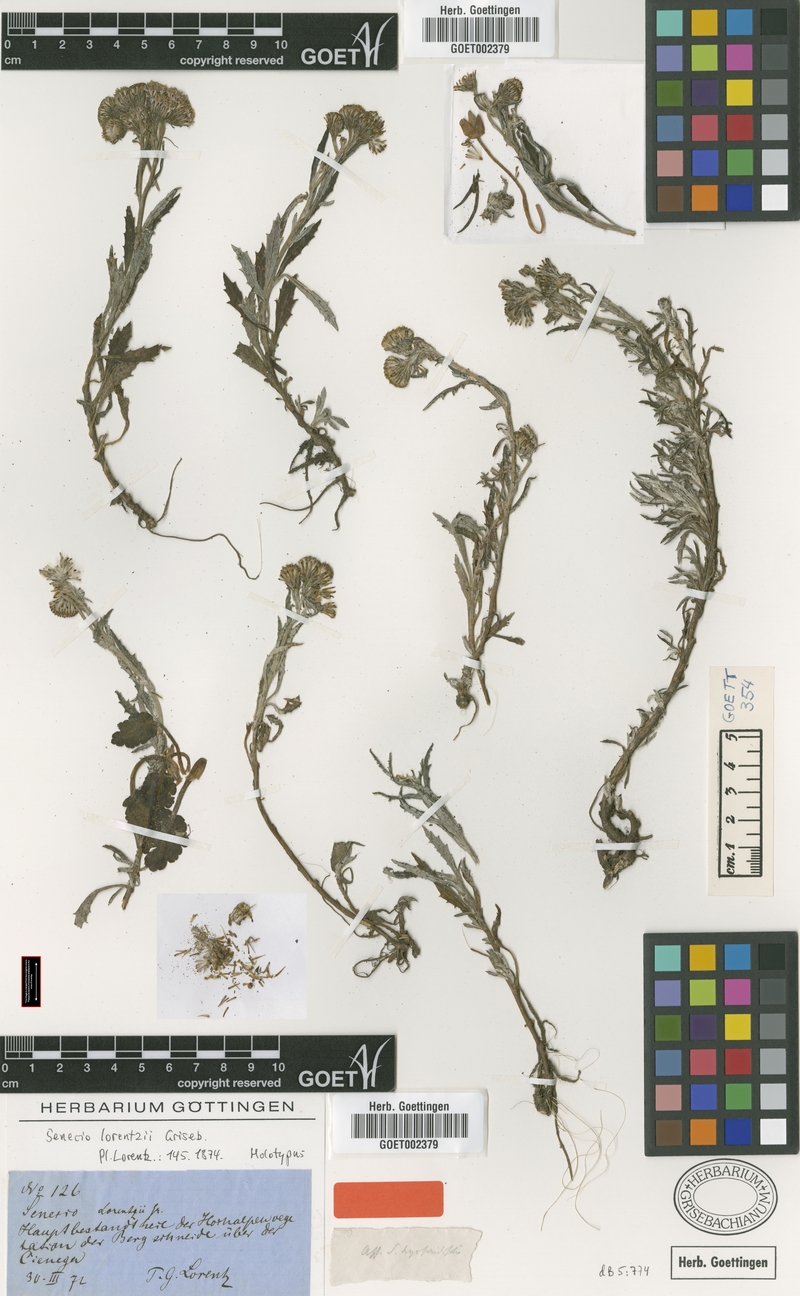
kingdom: Plantae
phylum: Tracheophyta
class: Magnoliopsida
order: Asterales
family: Asteraceae
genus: Senecio
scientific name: Senecio lorentzii
